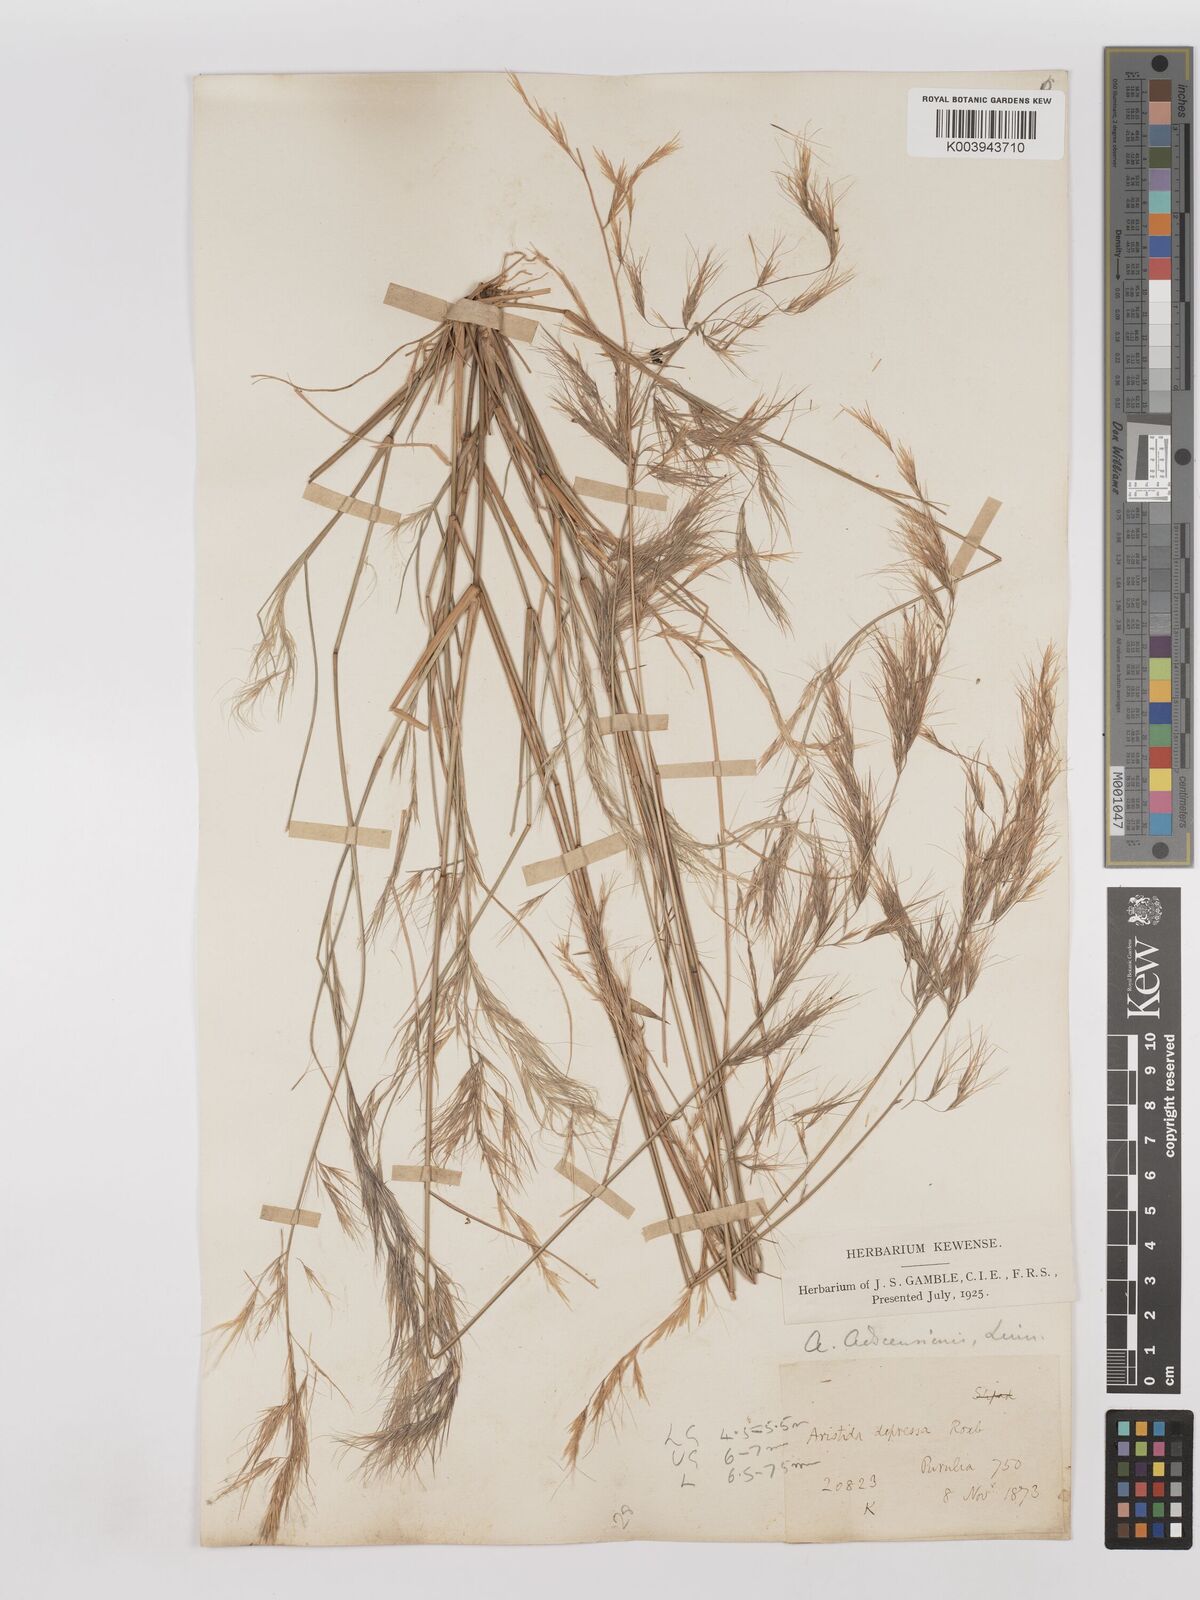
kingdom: Plantae
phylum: Tracheophyta
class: Liliopsida
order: Poales
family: Poaceae
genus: Aristida
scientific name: Aristida adscensionis
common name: Sixweeks threeawn
